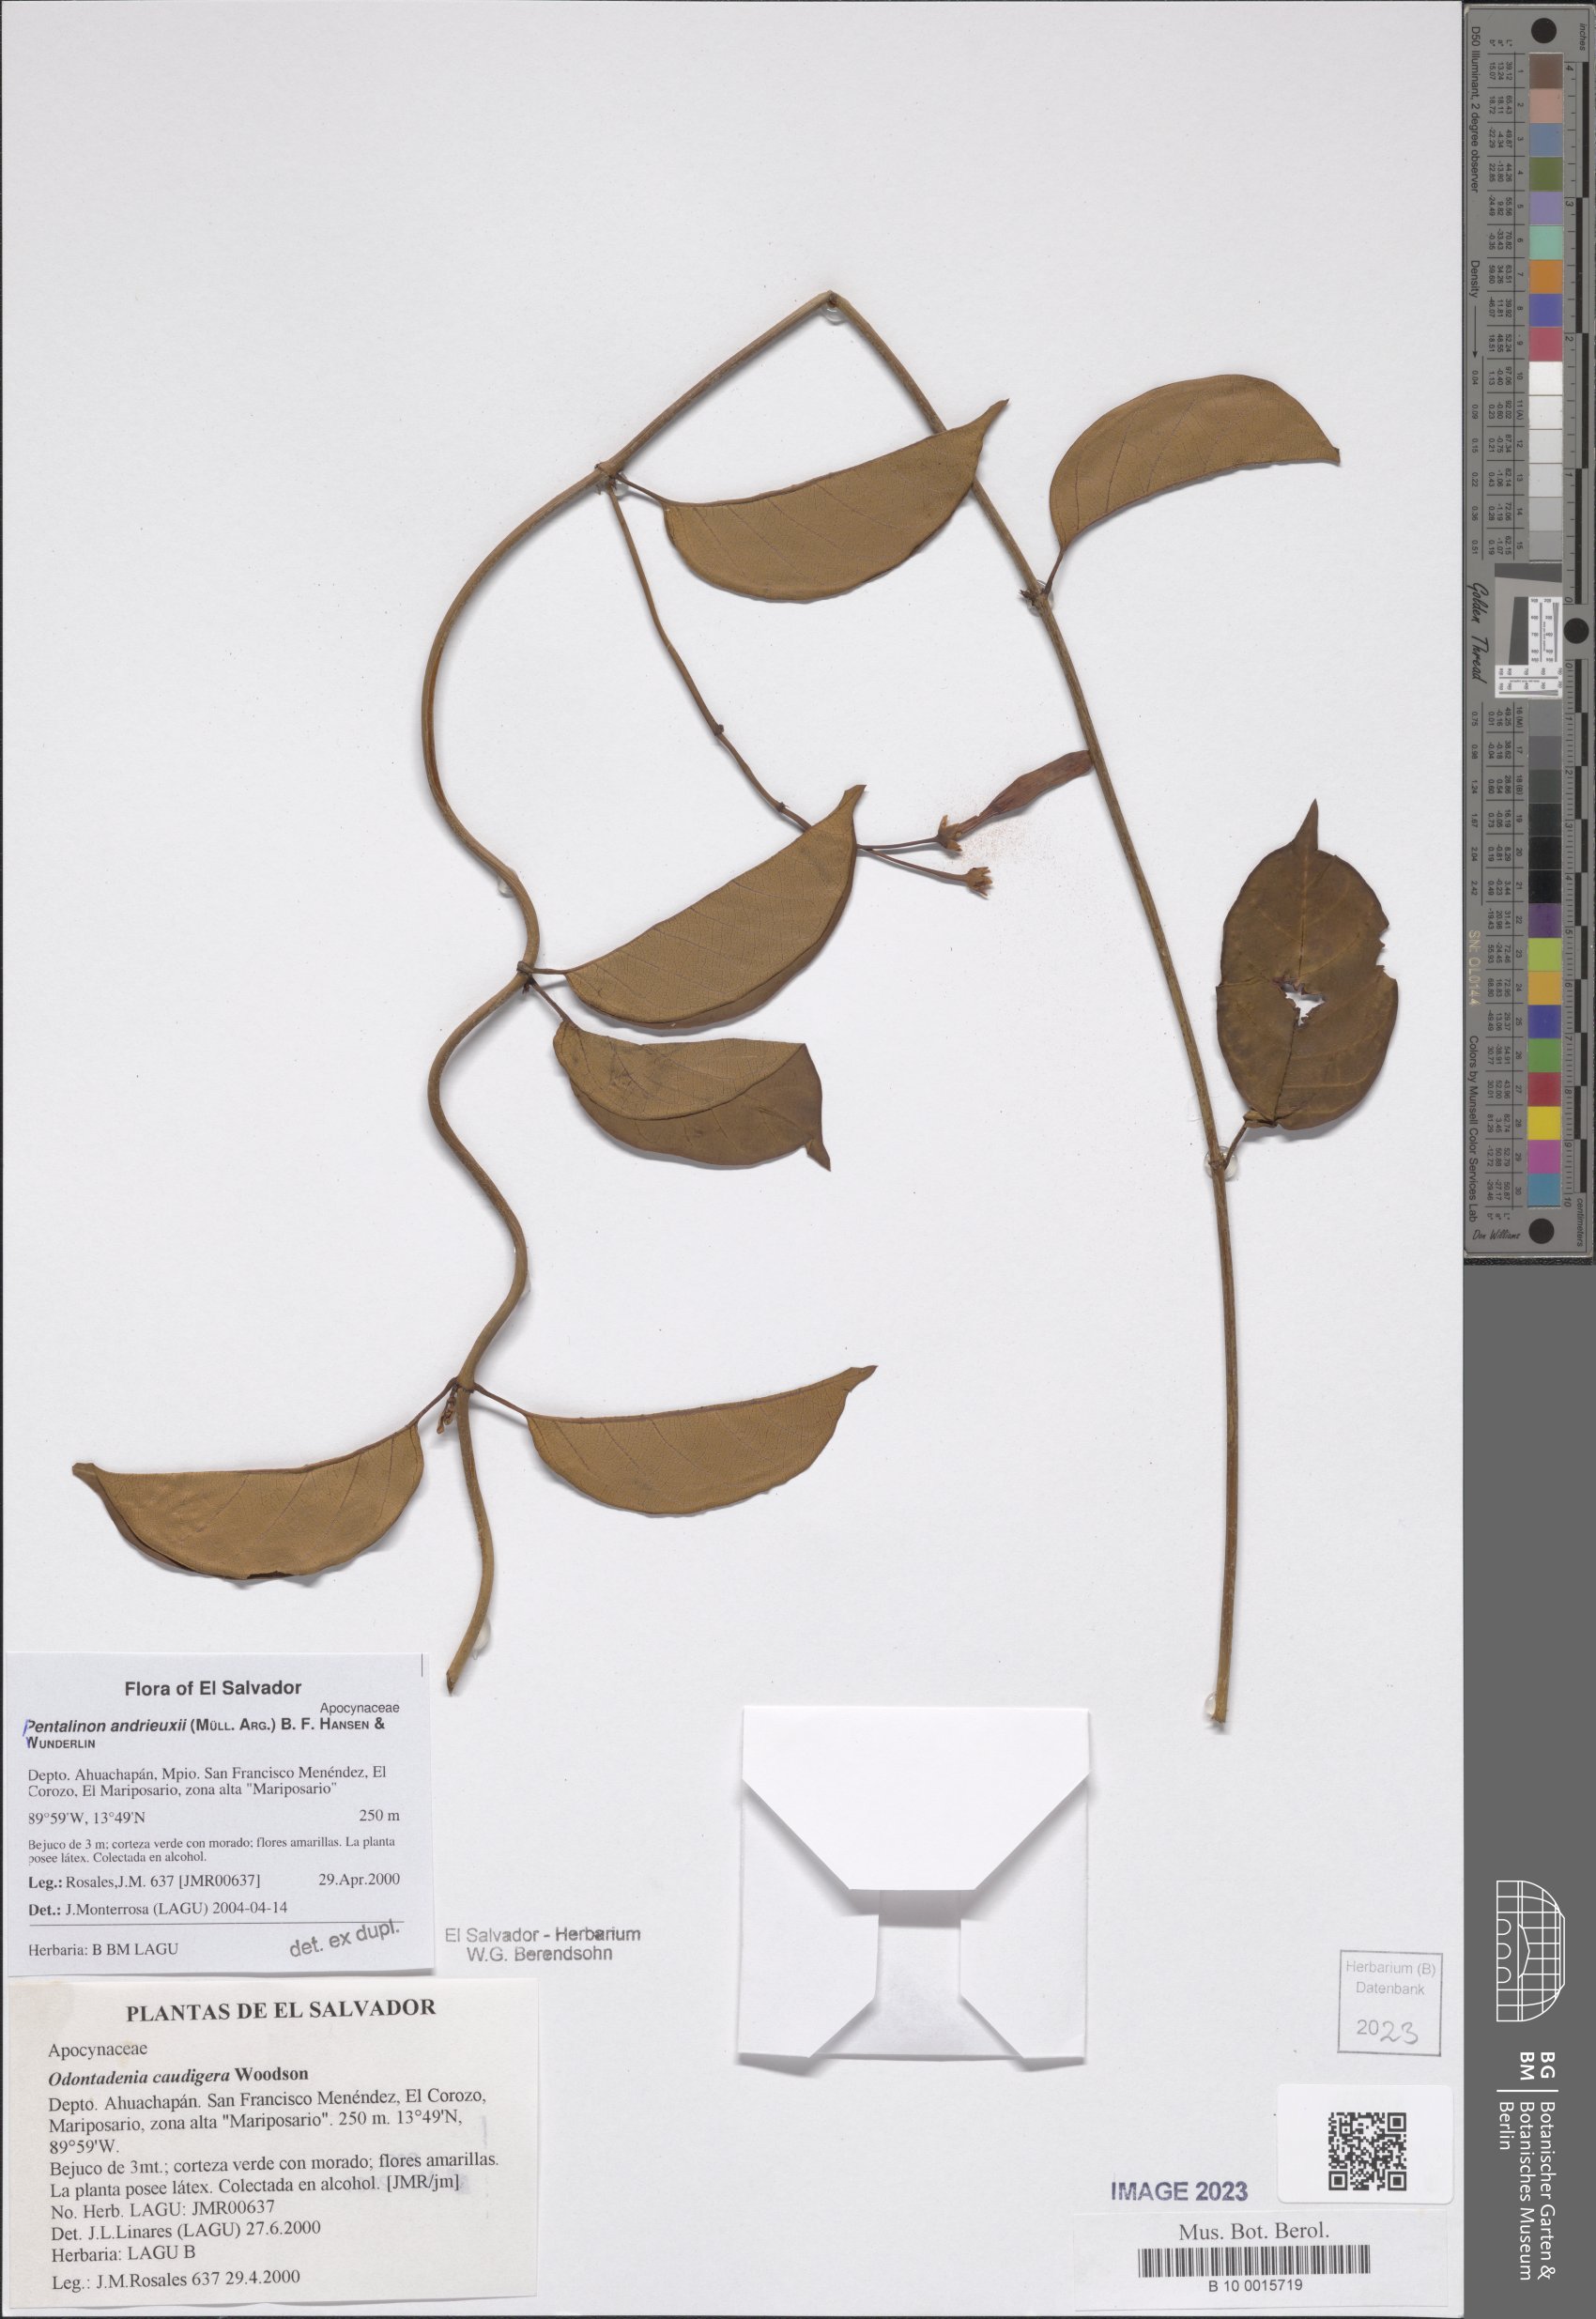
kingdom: Plantae
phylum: Tracheophyta
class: Magnoliopsida
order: Gentianales
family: Apocynaceae
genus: Pentalinon
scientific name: Pentalinon andrieuxii
